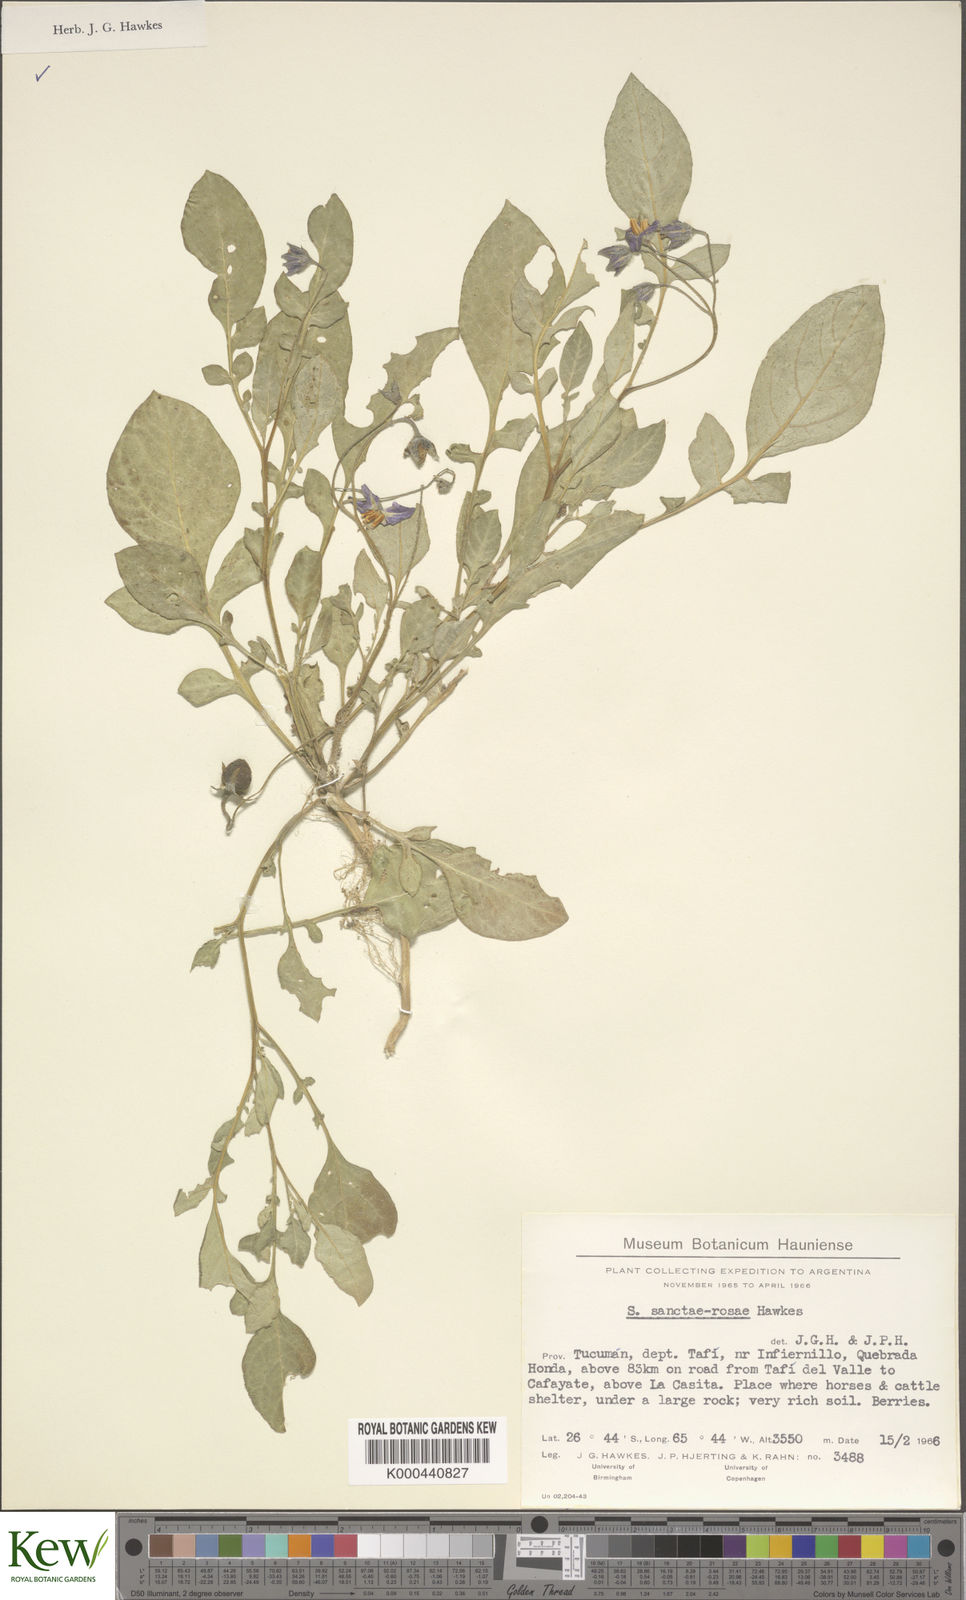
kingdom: Plantae
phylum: Tracheophyta
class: Magnoliopsida
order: Solanales
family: Solanaceae
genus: Solanum
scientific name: Solanum boliviense
